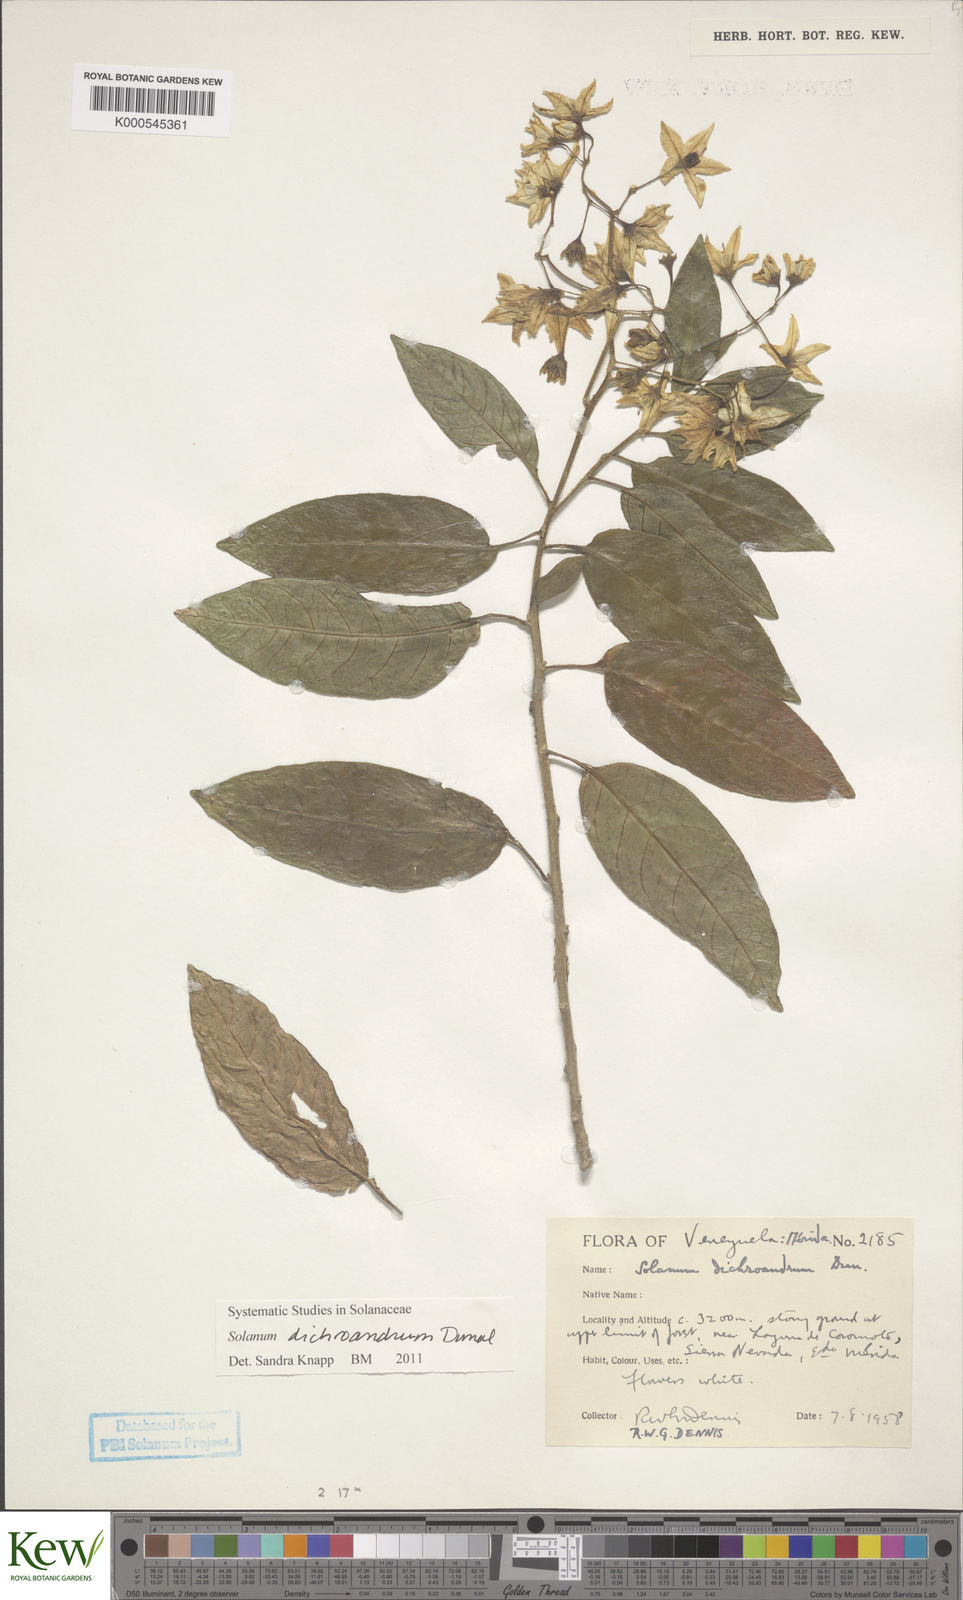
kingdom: Plantae
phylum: Tracheophyta
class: Magnoliopsida
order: Solanales
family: Solanaceae
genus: Solanum
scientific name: Solanum dichroandrum
